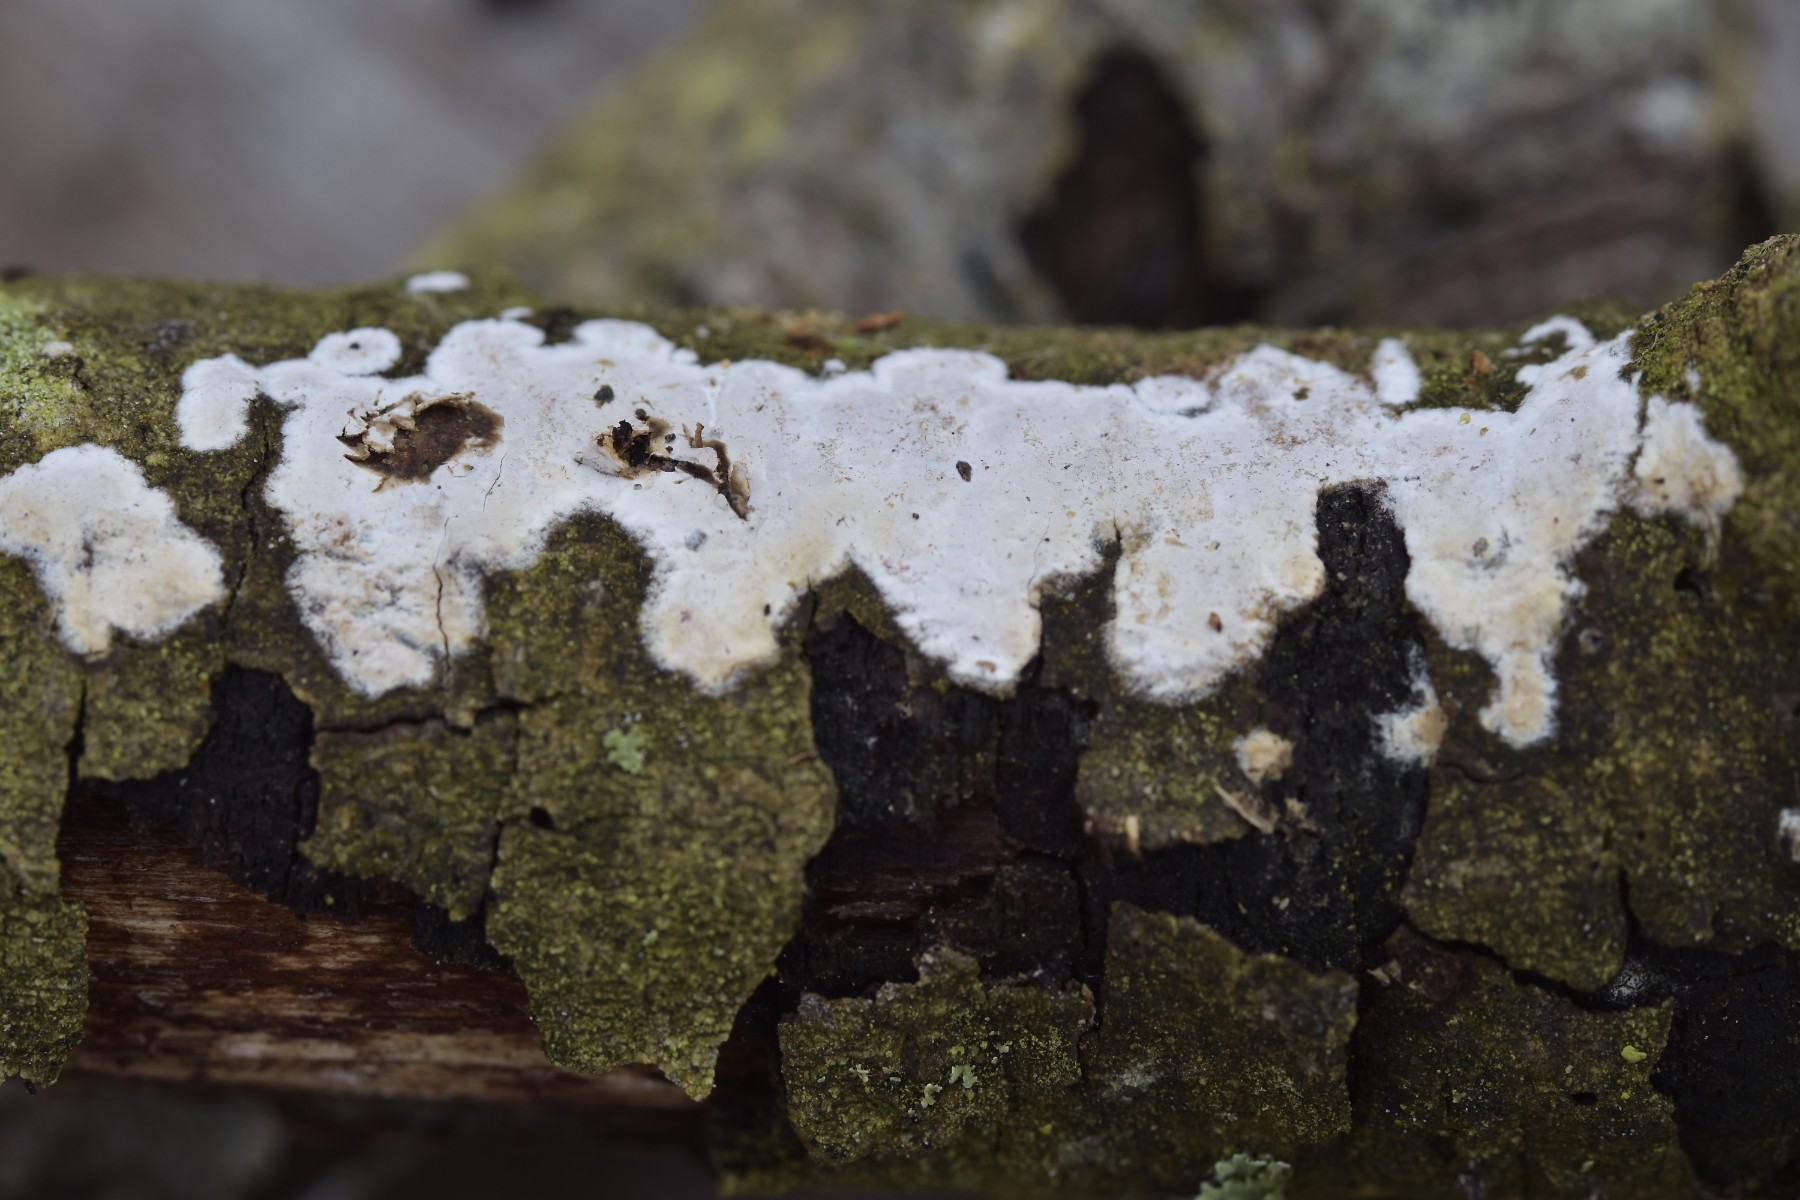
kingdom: Fungi
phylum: Basidiomycota
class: Agaricomycetes
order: Auriculariales
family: Auriculariaceae
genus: Alloexidiopsis
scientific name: Alloexidiopsis calcea
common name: kalkhvid bævrehinde
